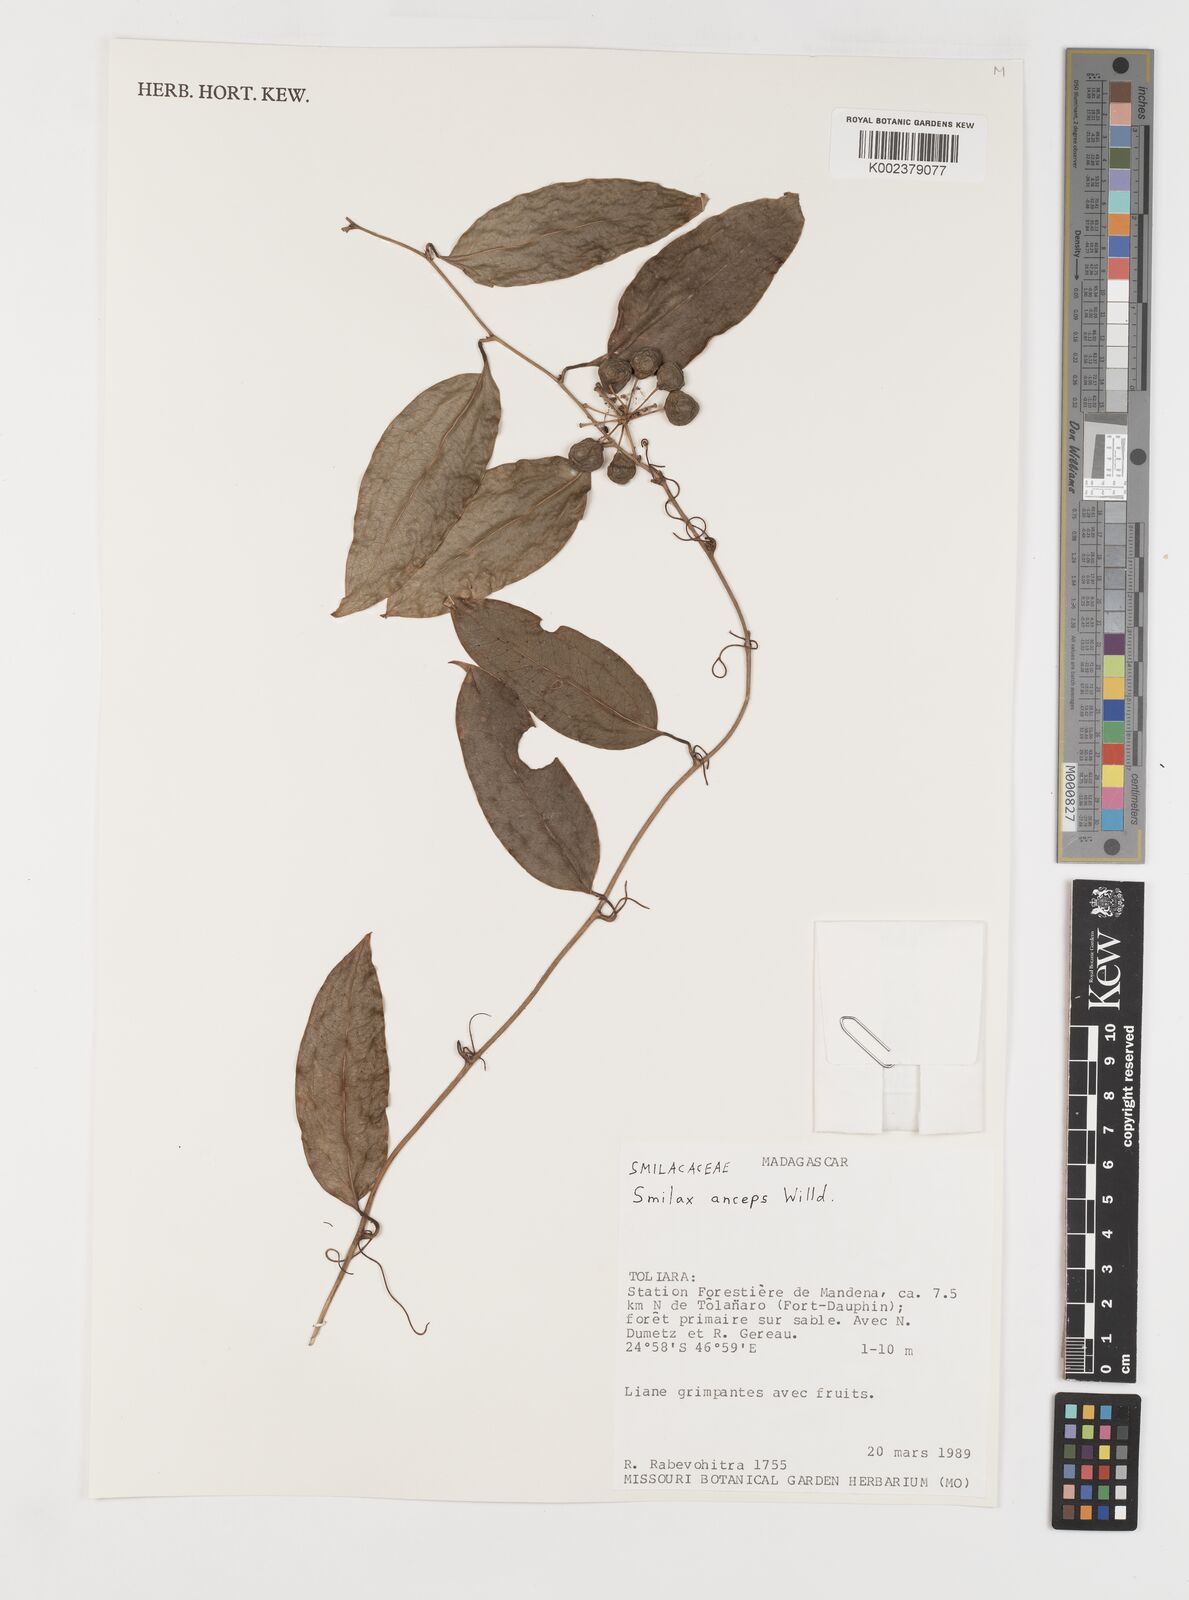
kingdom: Plantae
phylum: Tracheophyta
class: Liliopsida
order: Liliales
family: Smilacaceae
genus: Smilax
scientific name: Smilax anceps
